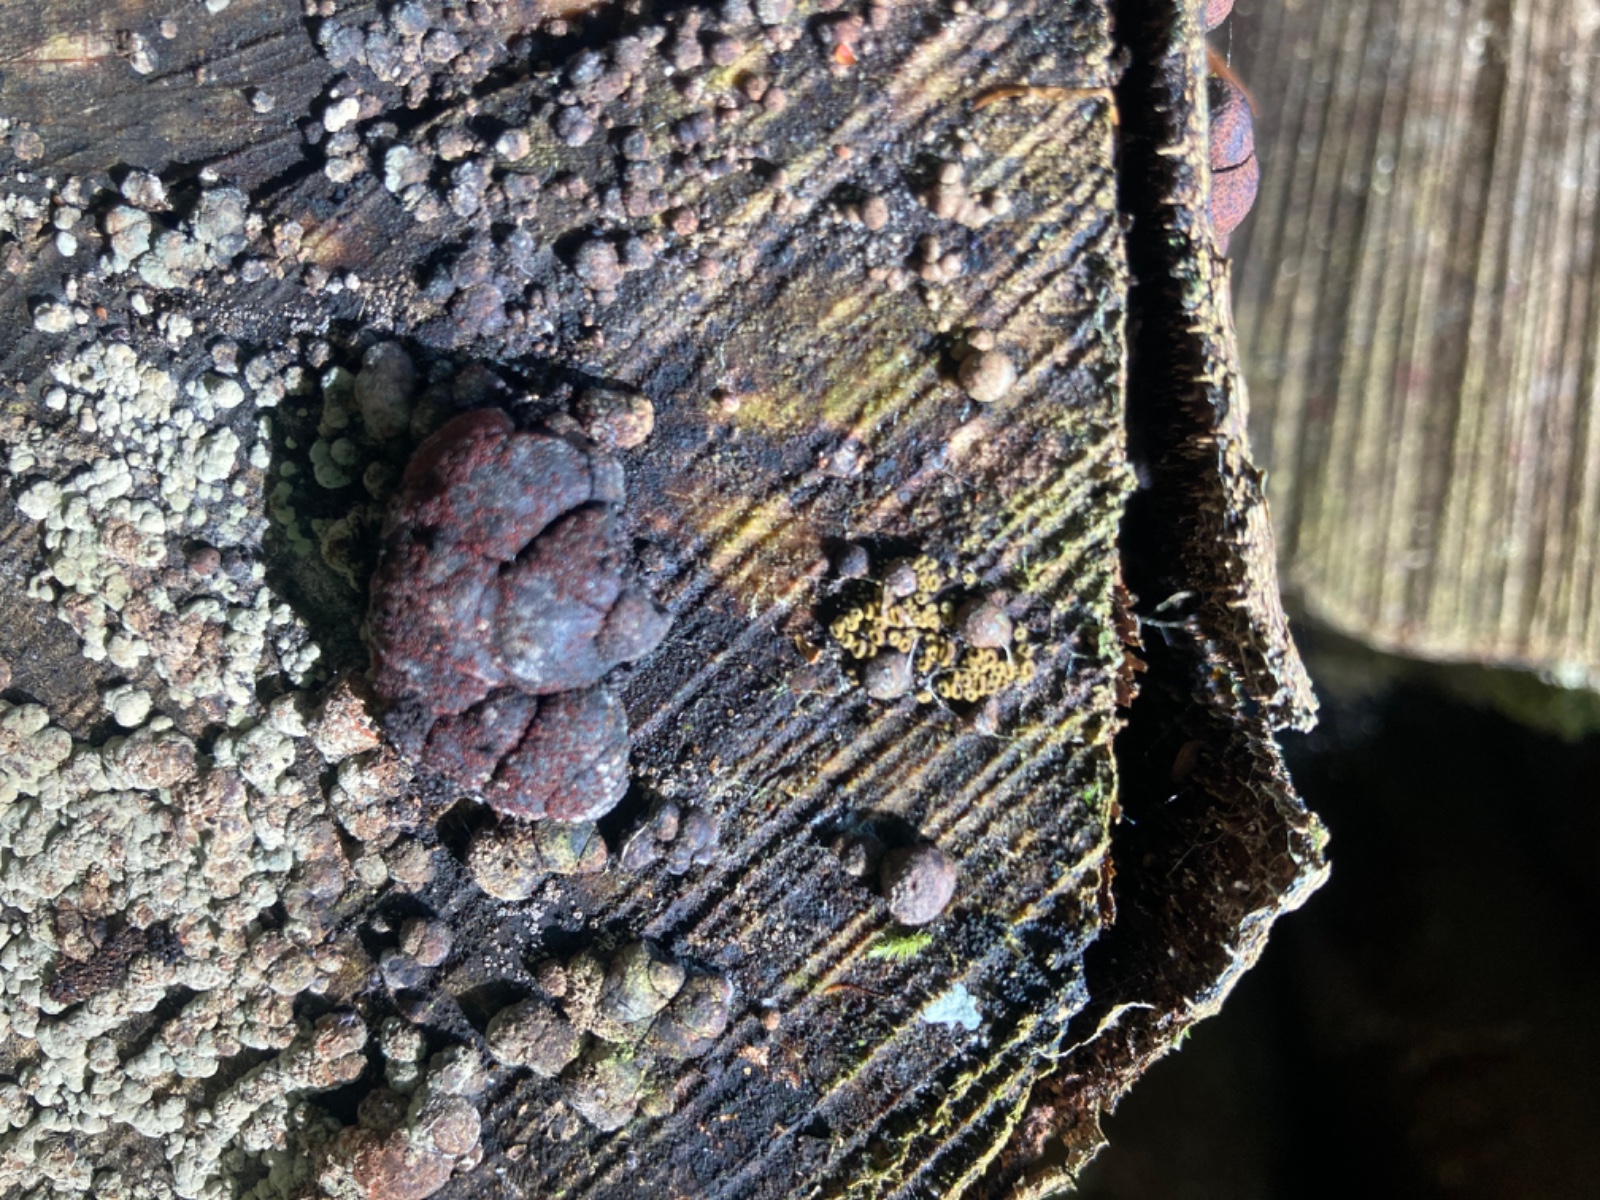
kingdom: Fungi
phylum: Ascomycota
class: Sordariomycetes
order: Hypocreales
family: Nectriaceae
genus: Cosmospora
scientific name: Cosmospora arxii
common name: kuljordbær-cinnobersvamp
